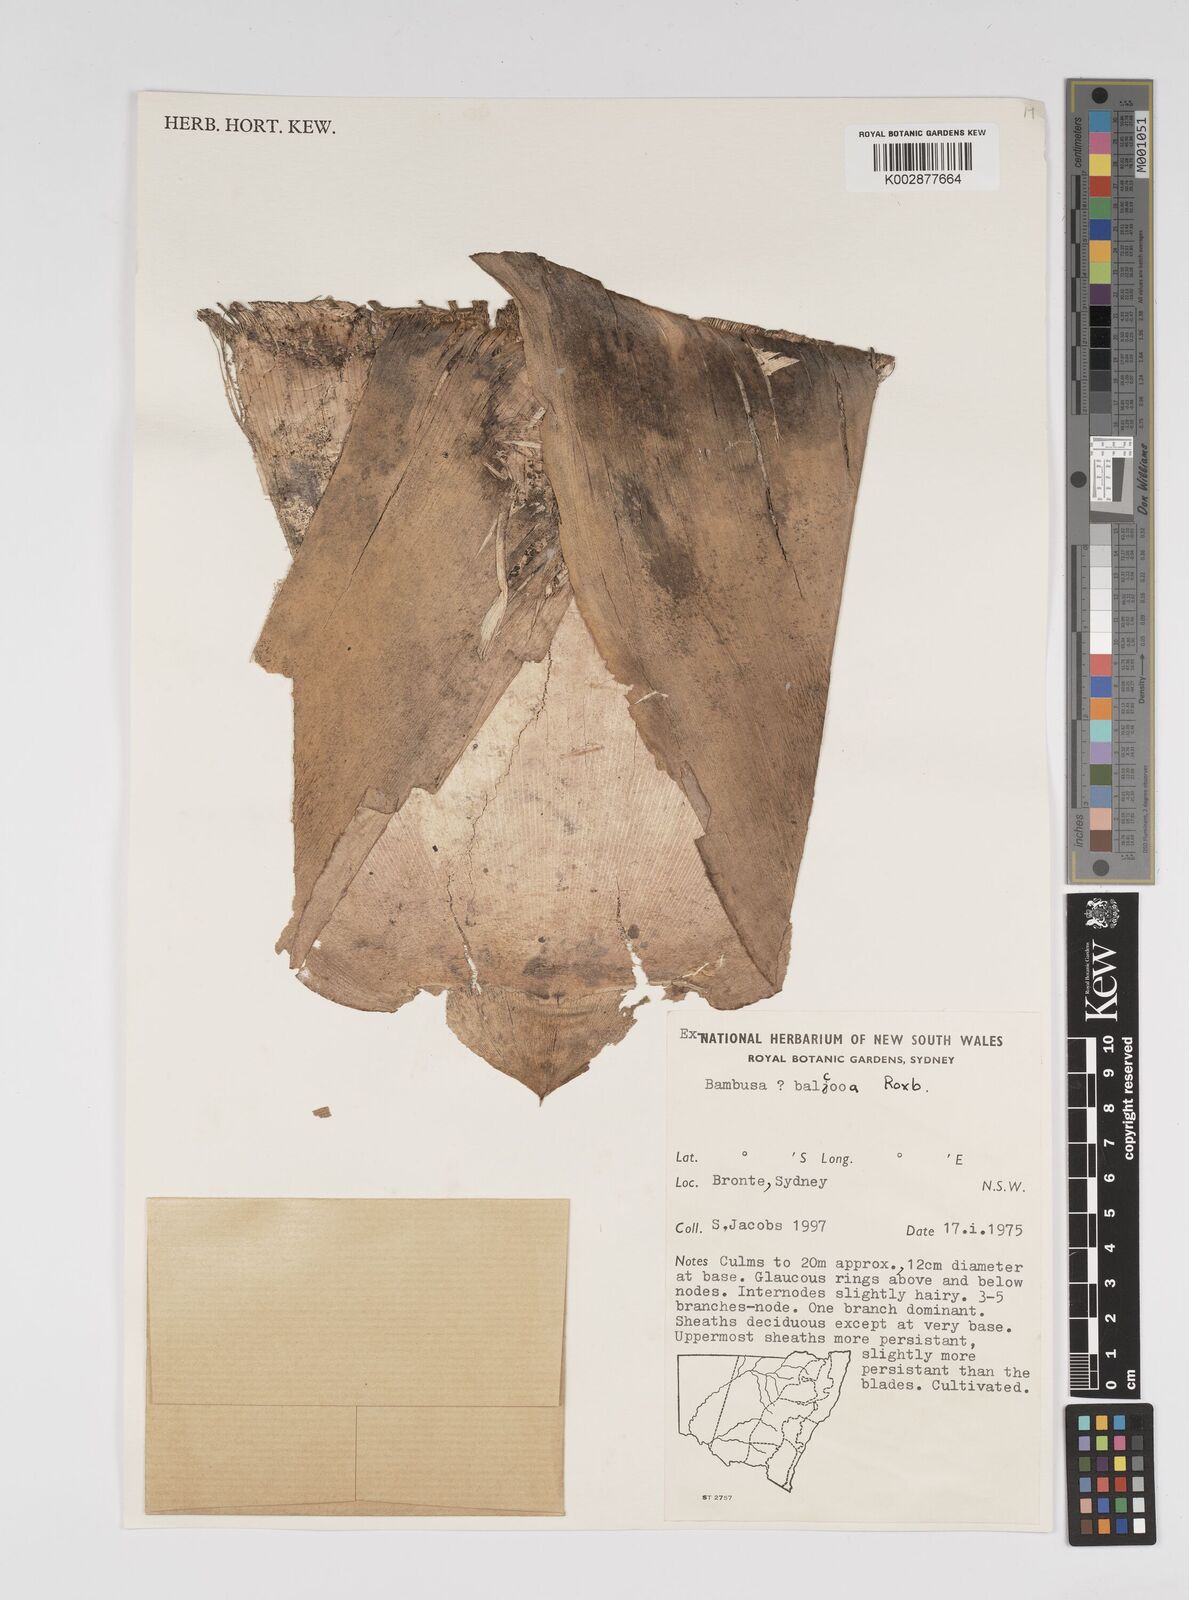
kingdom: Plantae
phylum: Tracheophyta
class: Liliopsida
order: Poales
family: Poaceae
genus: Bambusa
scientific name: Bambusa balcooa
